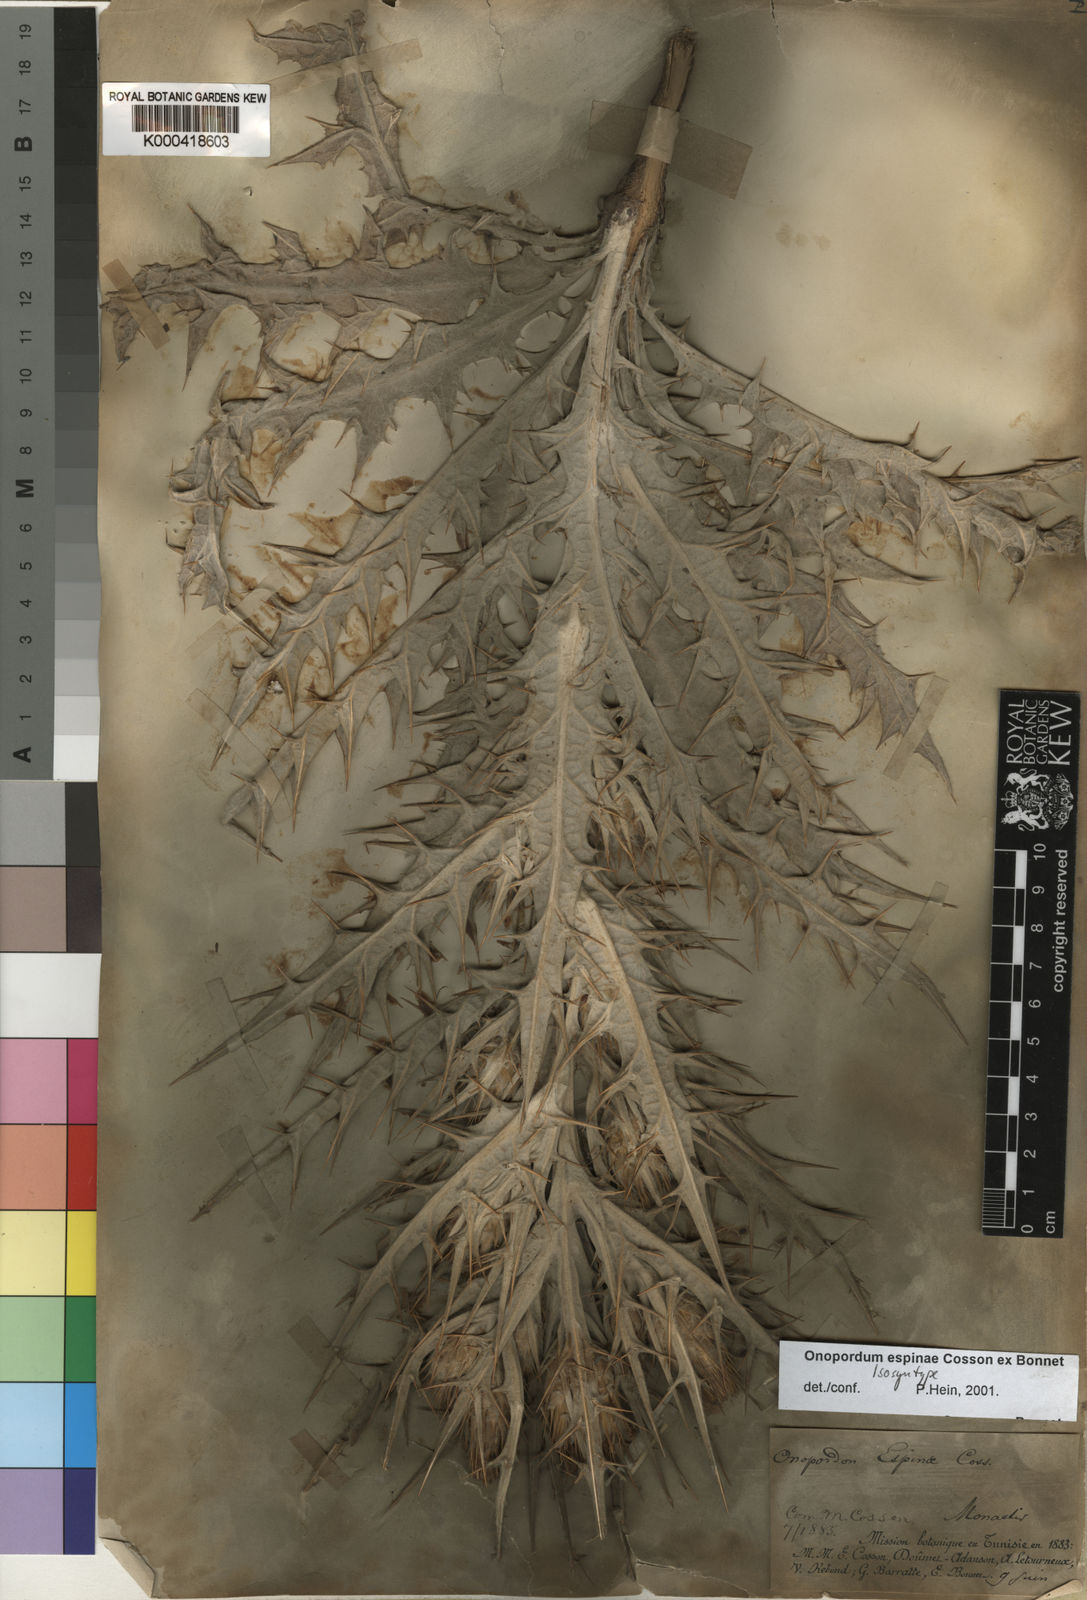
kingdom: Plantae
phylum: Tracheophyta
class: Magnoliopsida
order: Asterales
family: Asteraceae
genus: Onopordum
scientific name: Onopordum
